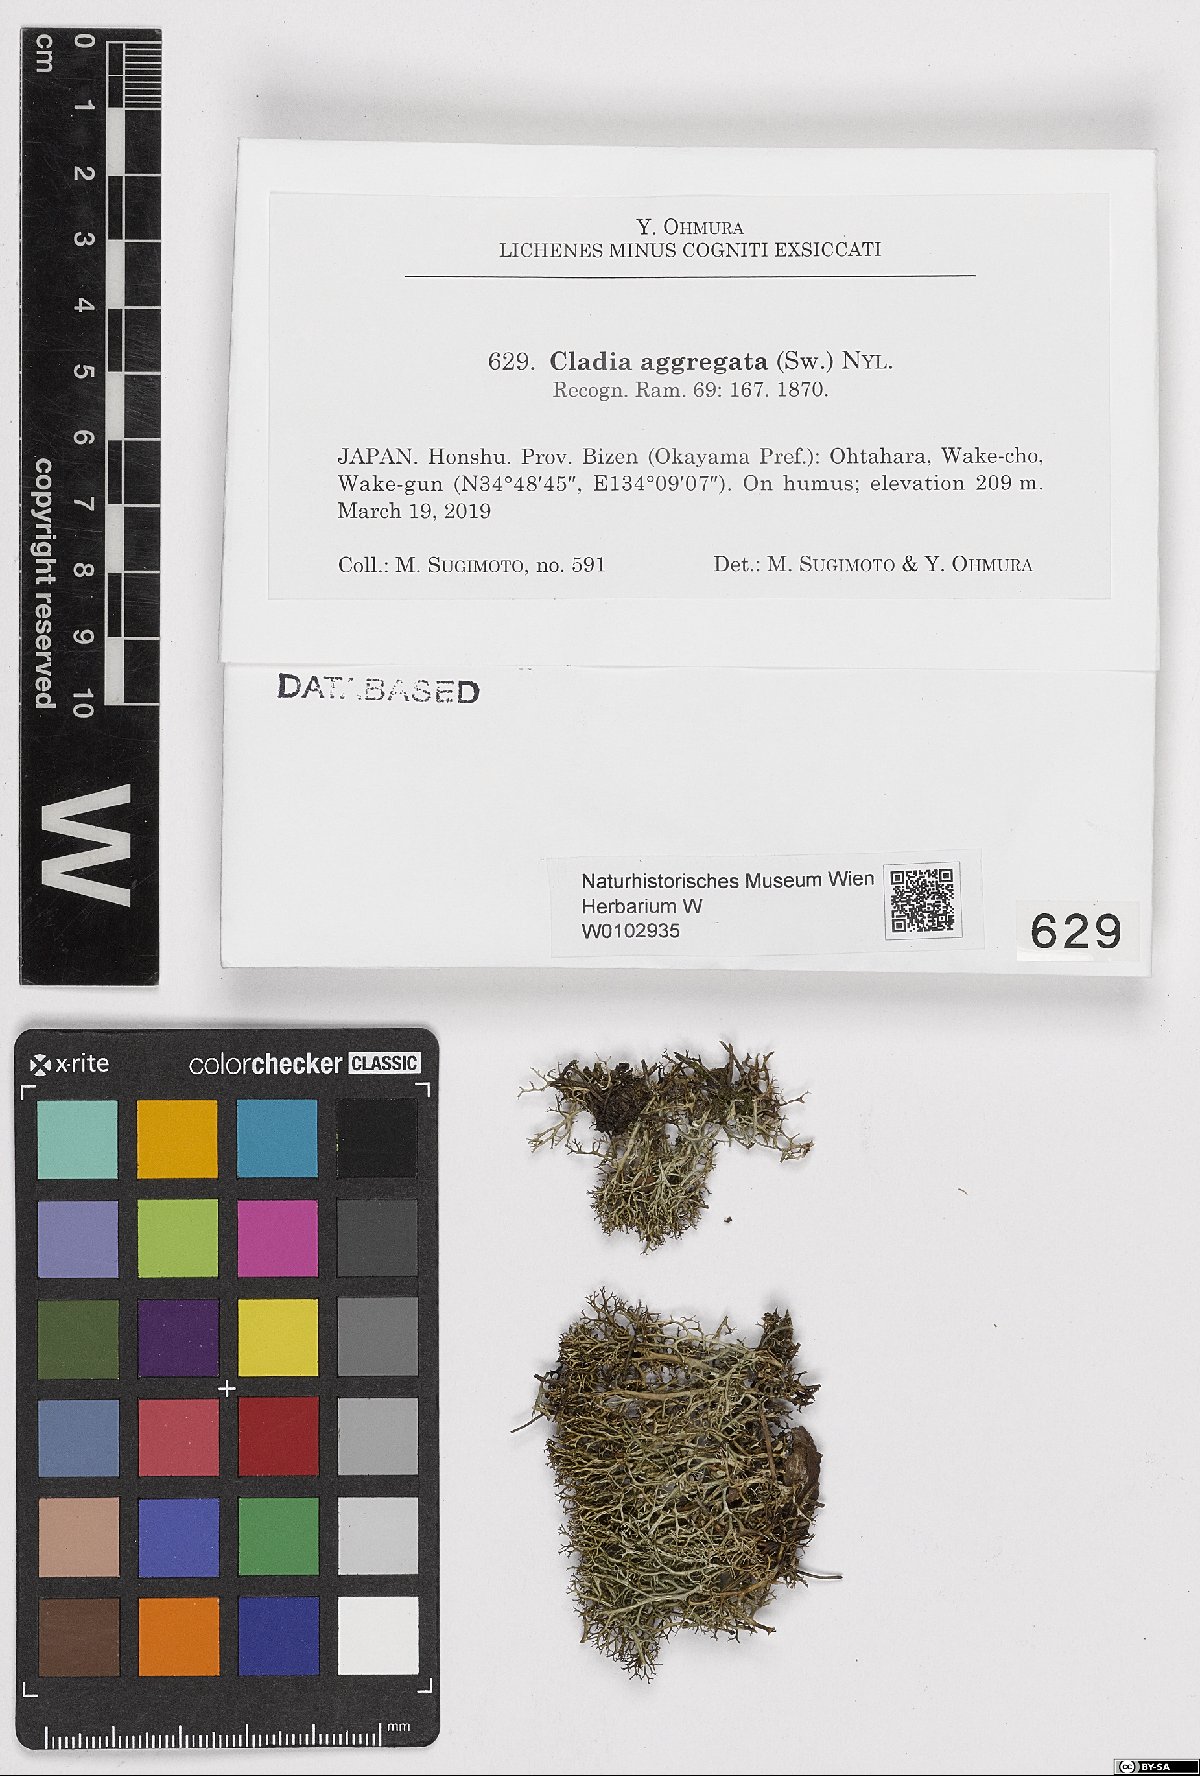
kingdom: Fungi
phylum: Ascomycota
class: Lecanoromycetes
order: Lecanorales
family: Cladoniaceae
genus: Cladia
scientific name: Cladia aggregata
